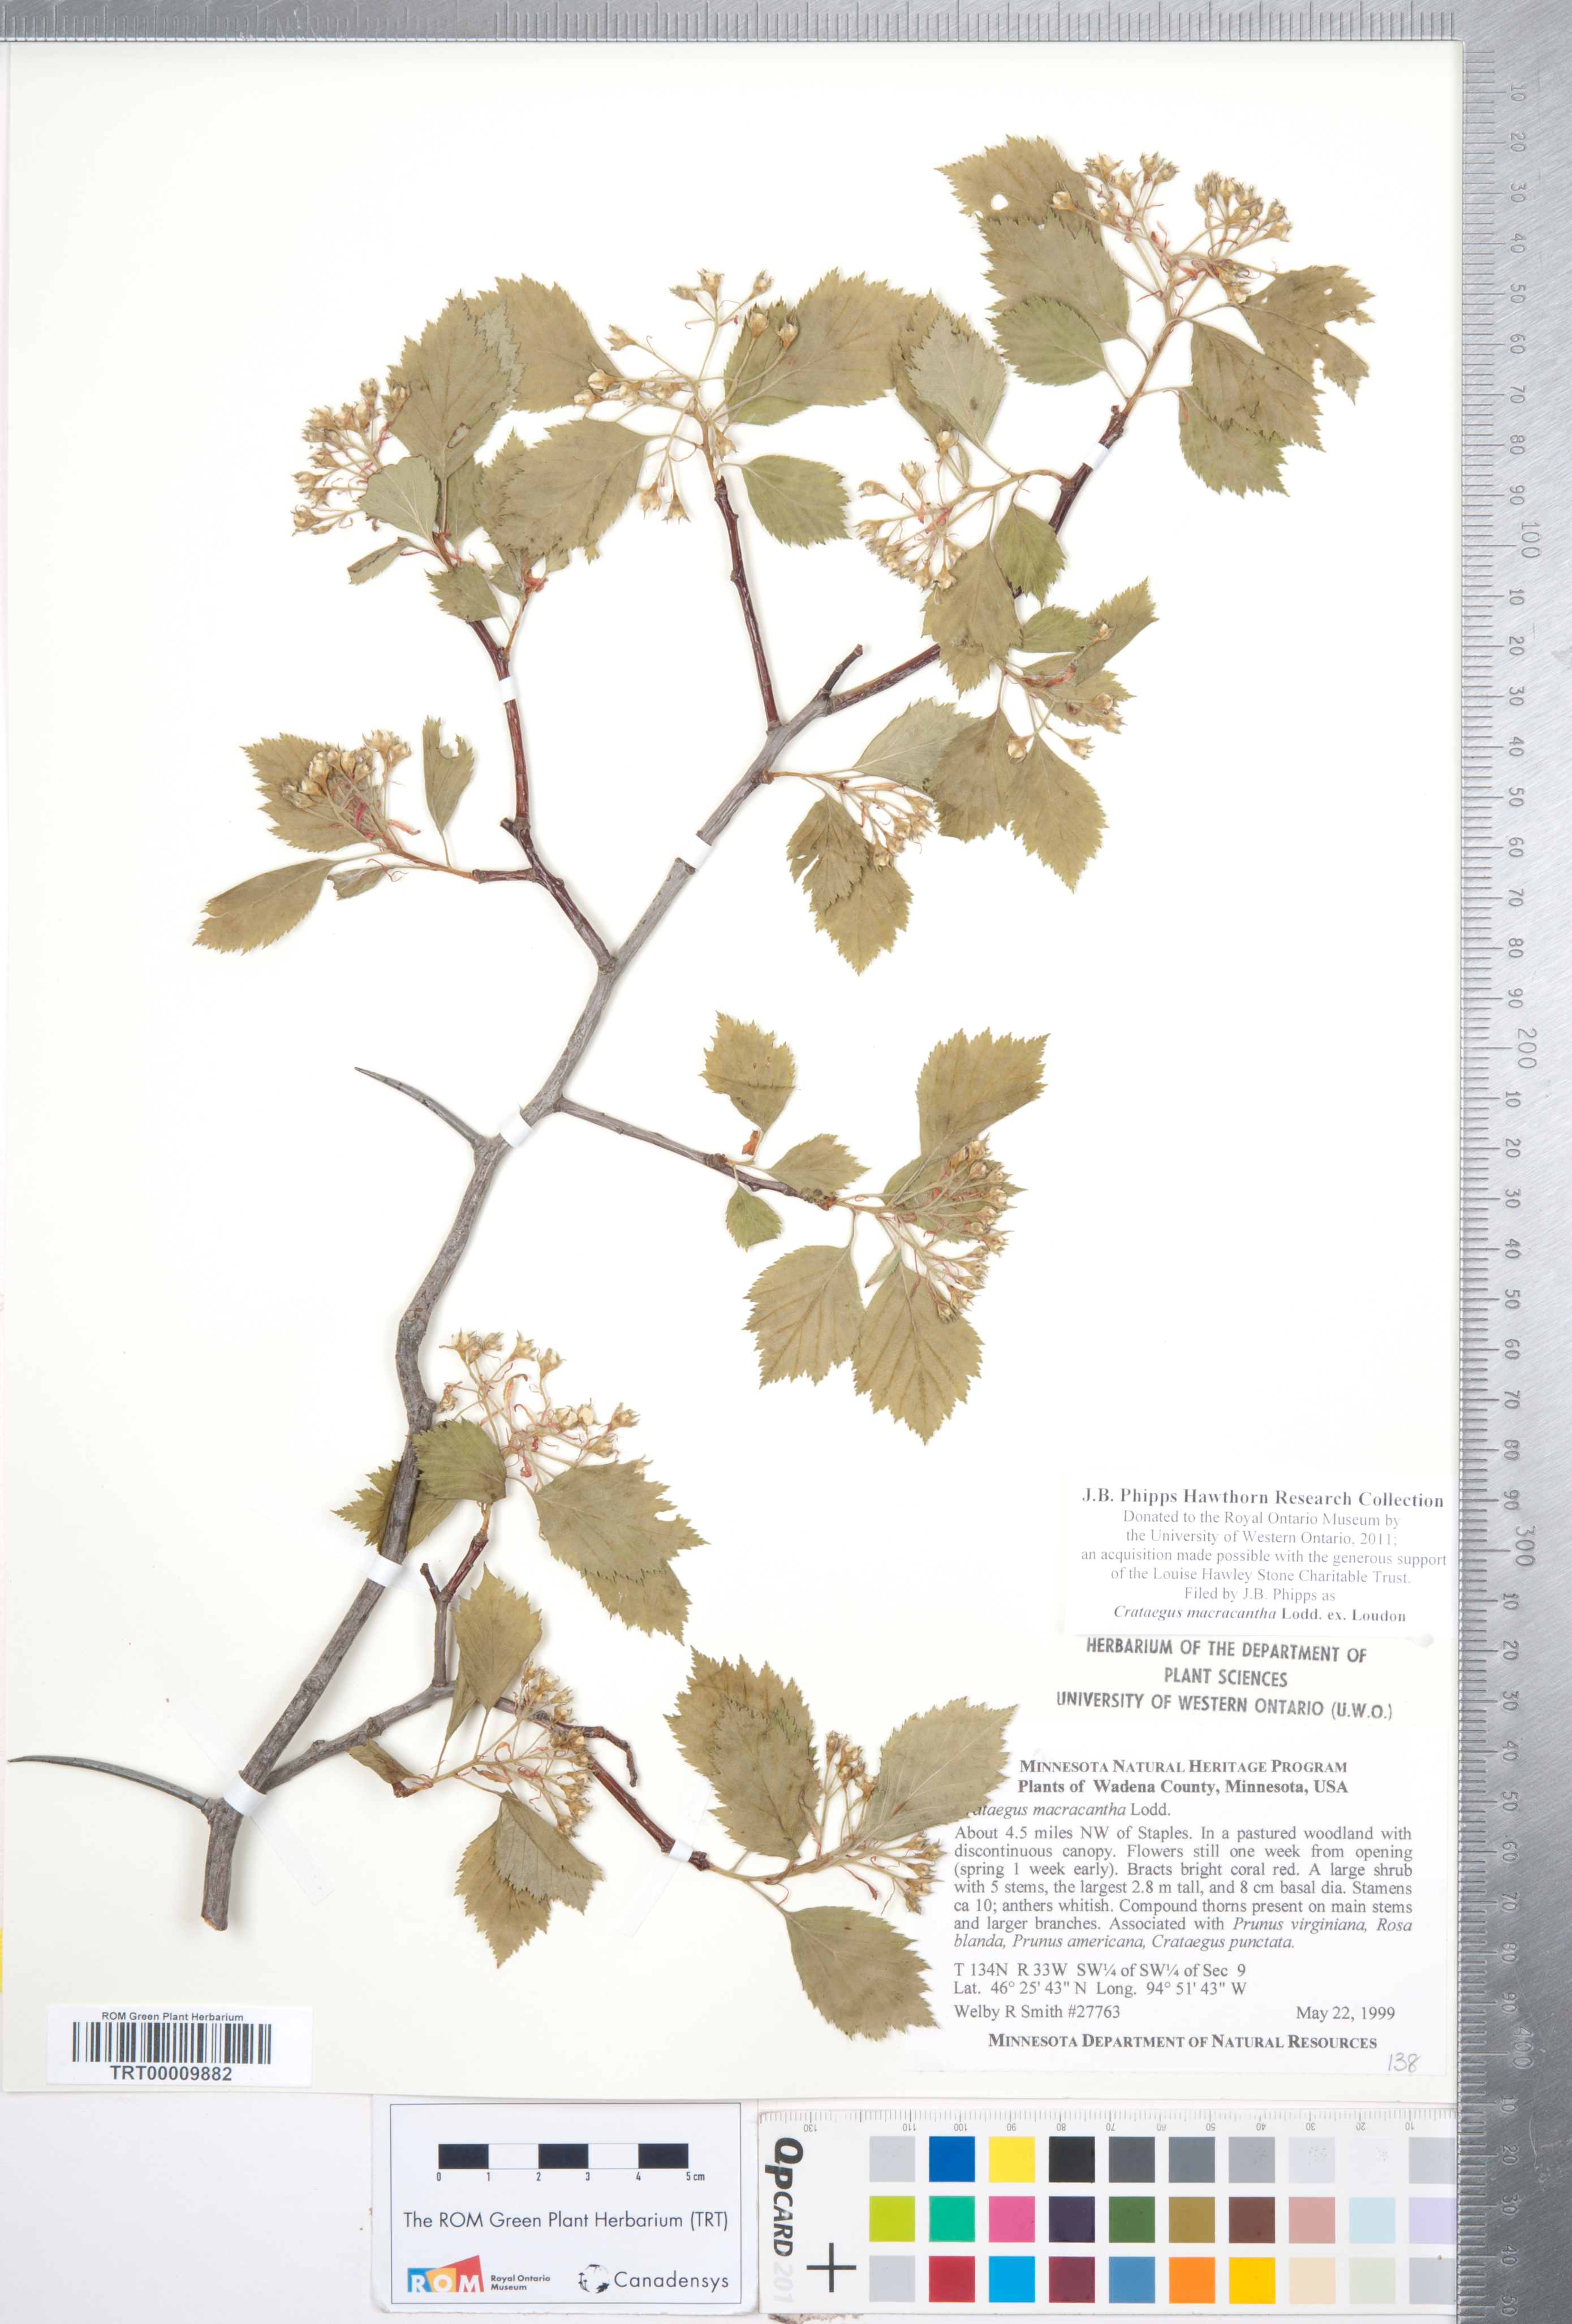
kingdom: Plantae
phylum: Tracheophyta
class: Magnoliopsida
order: Rosales
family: Rosaceae
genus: Crataegus
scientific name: Crataegus macracantha
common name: Large-thorn hawthorn
